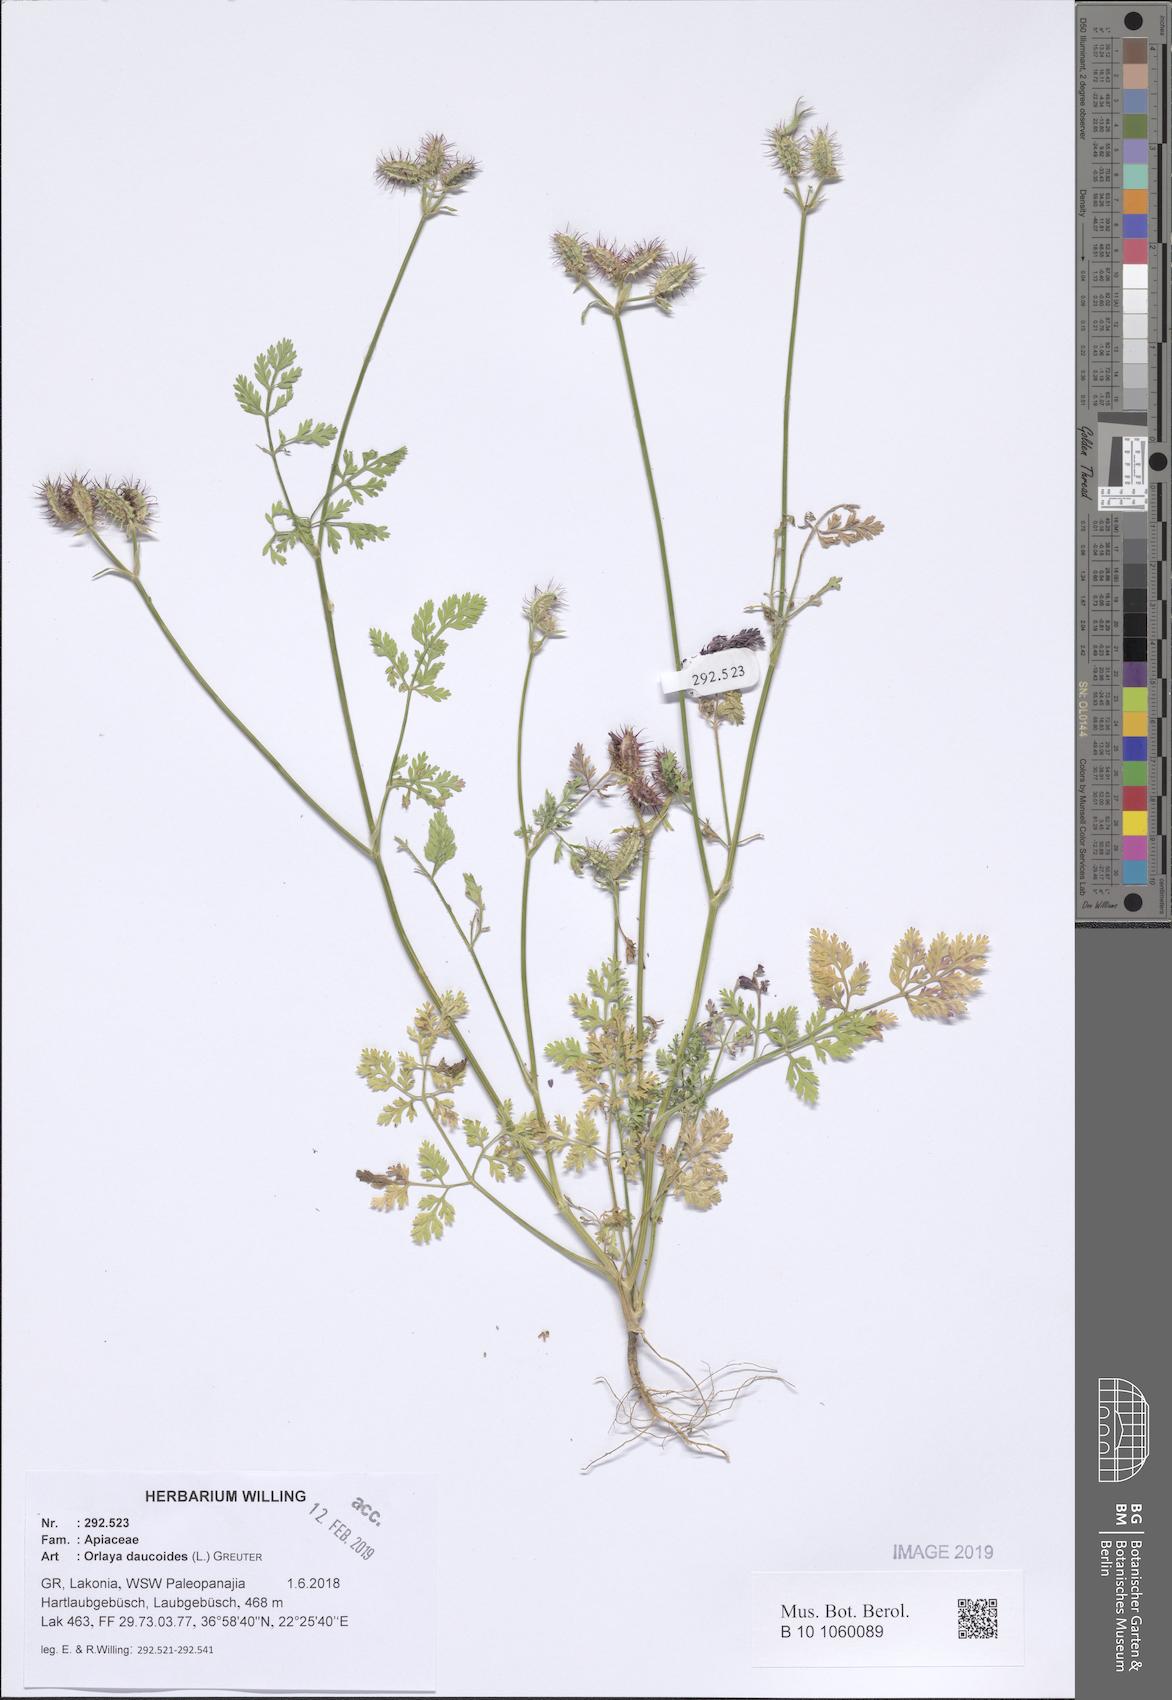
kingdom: Plantae
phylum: Tracheophyta
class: Magnoliopsida
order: Apiales
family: Apiaceae
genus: Orlaya
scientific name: Orlaya daucoides
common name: Flat-fruit orlaya
